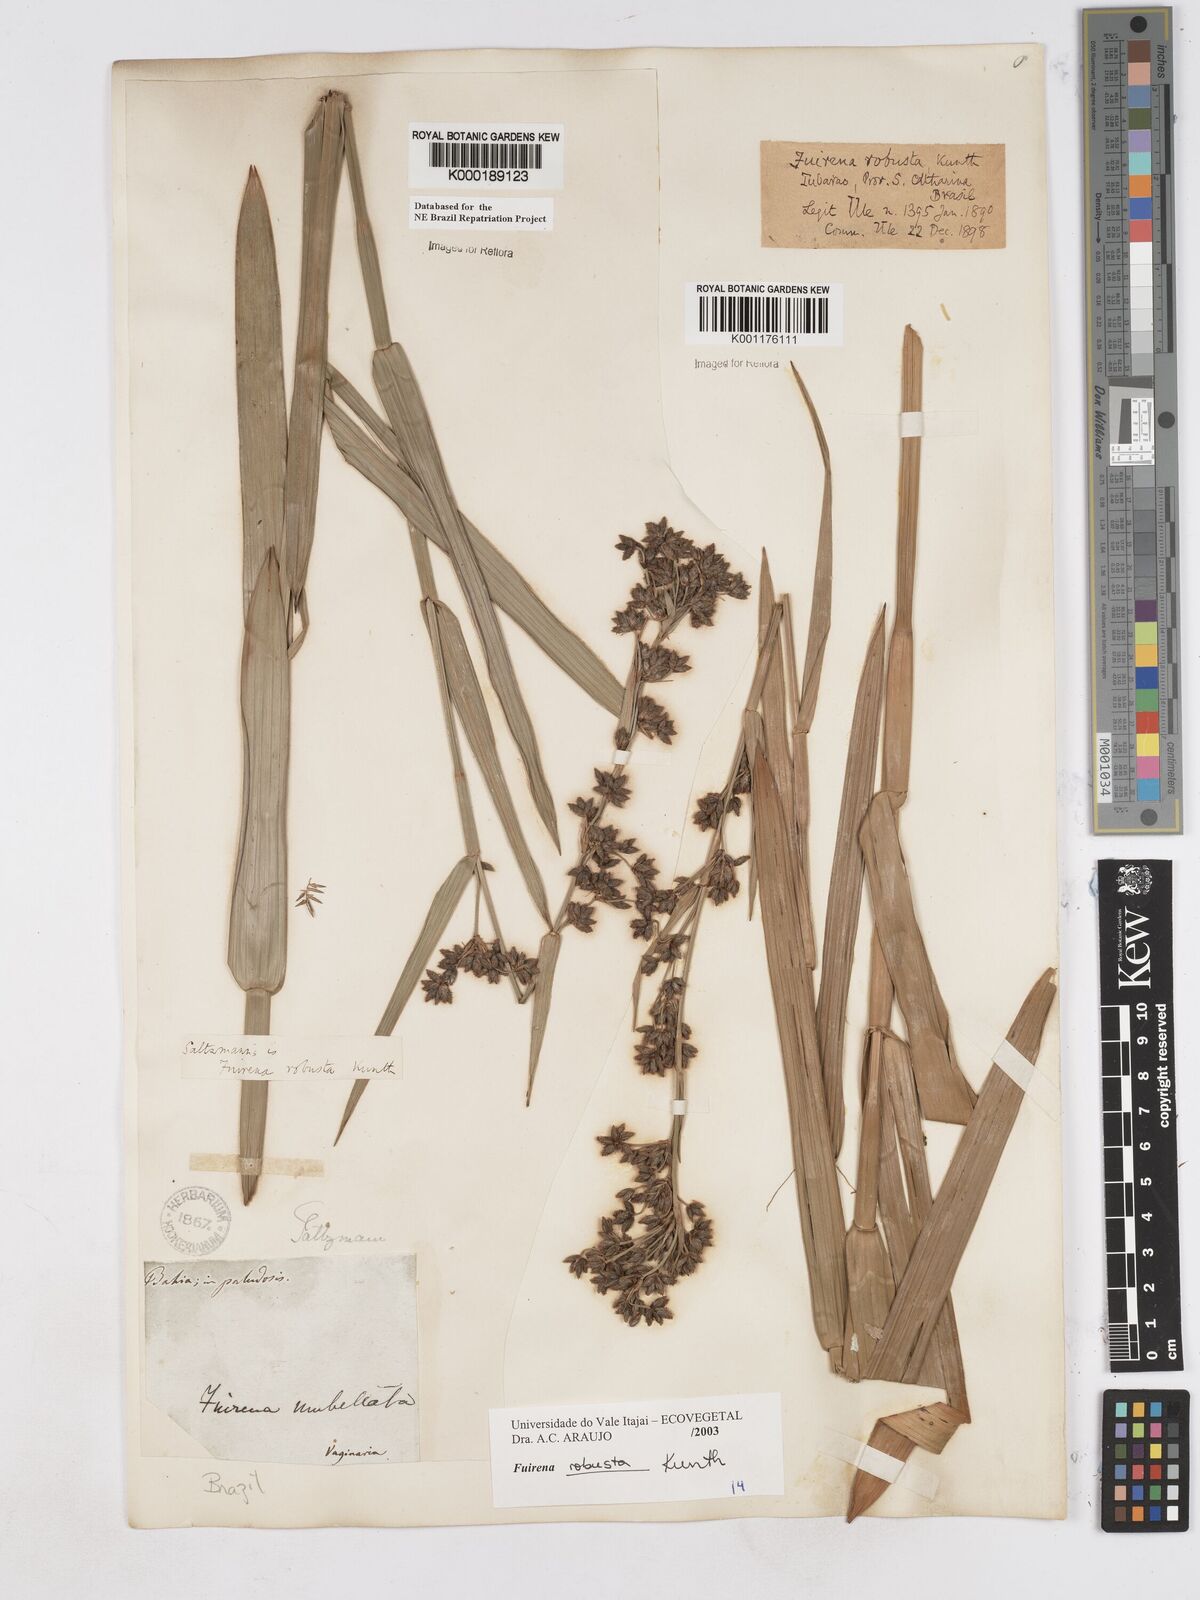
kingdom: Plantae
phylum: Tracheophyta
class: Liliopsida
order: Poales
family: Cyperaceae
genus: Fuirena
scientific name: Fuirena robusta
